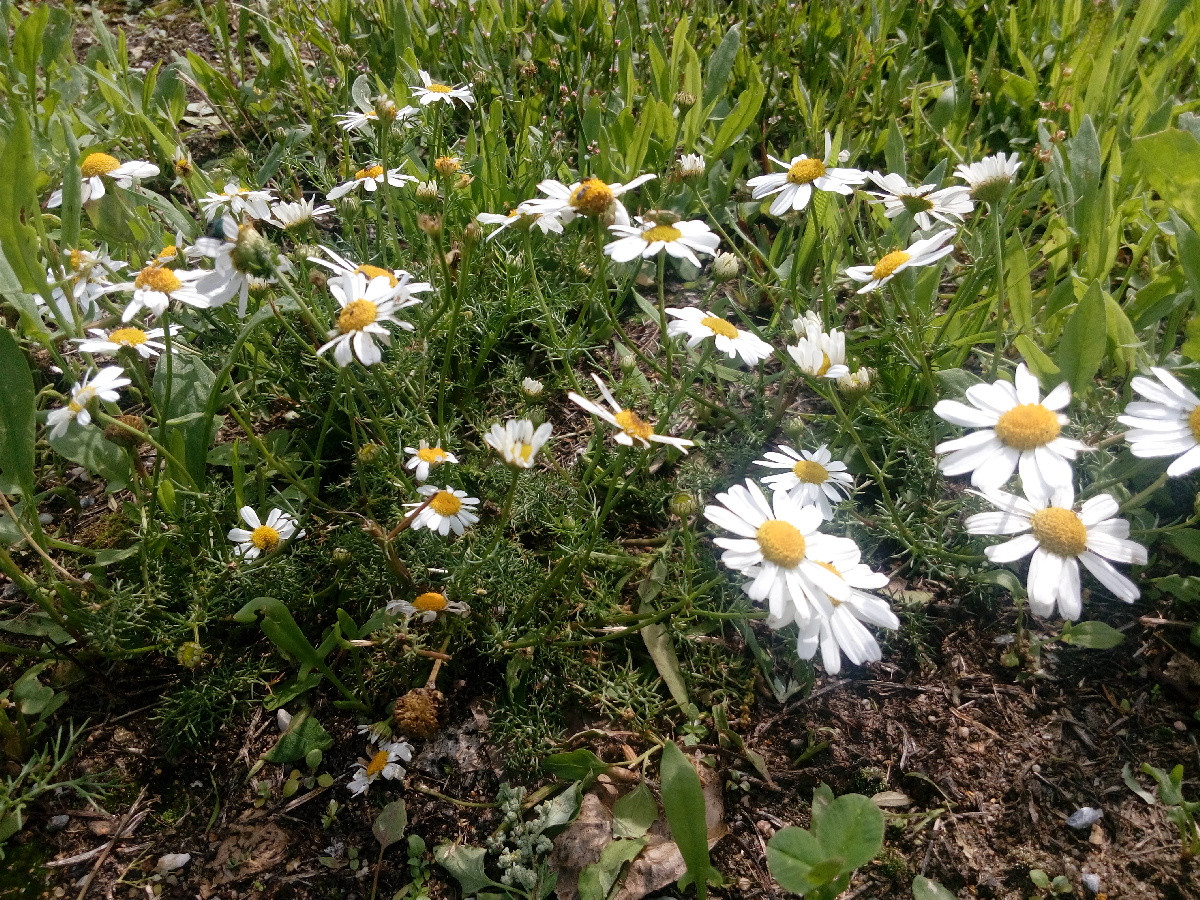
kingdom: Plantae
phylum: Tracheophyta
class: Magnoliopsida
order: Asterales
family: Asteraceae
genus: Tripleurospermum
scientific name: Tripleurospermum inodorum
